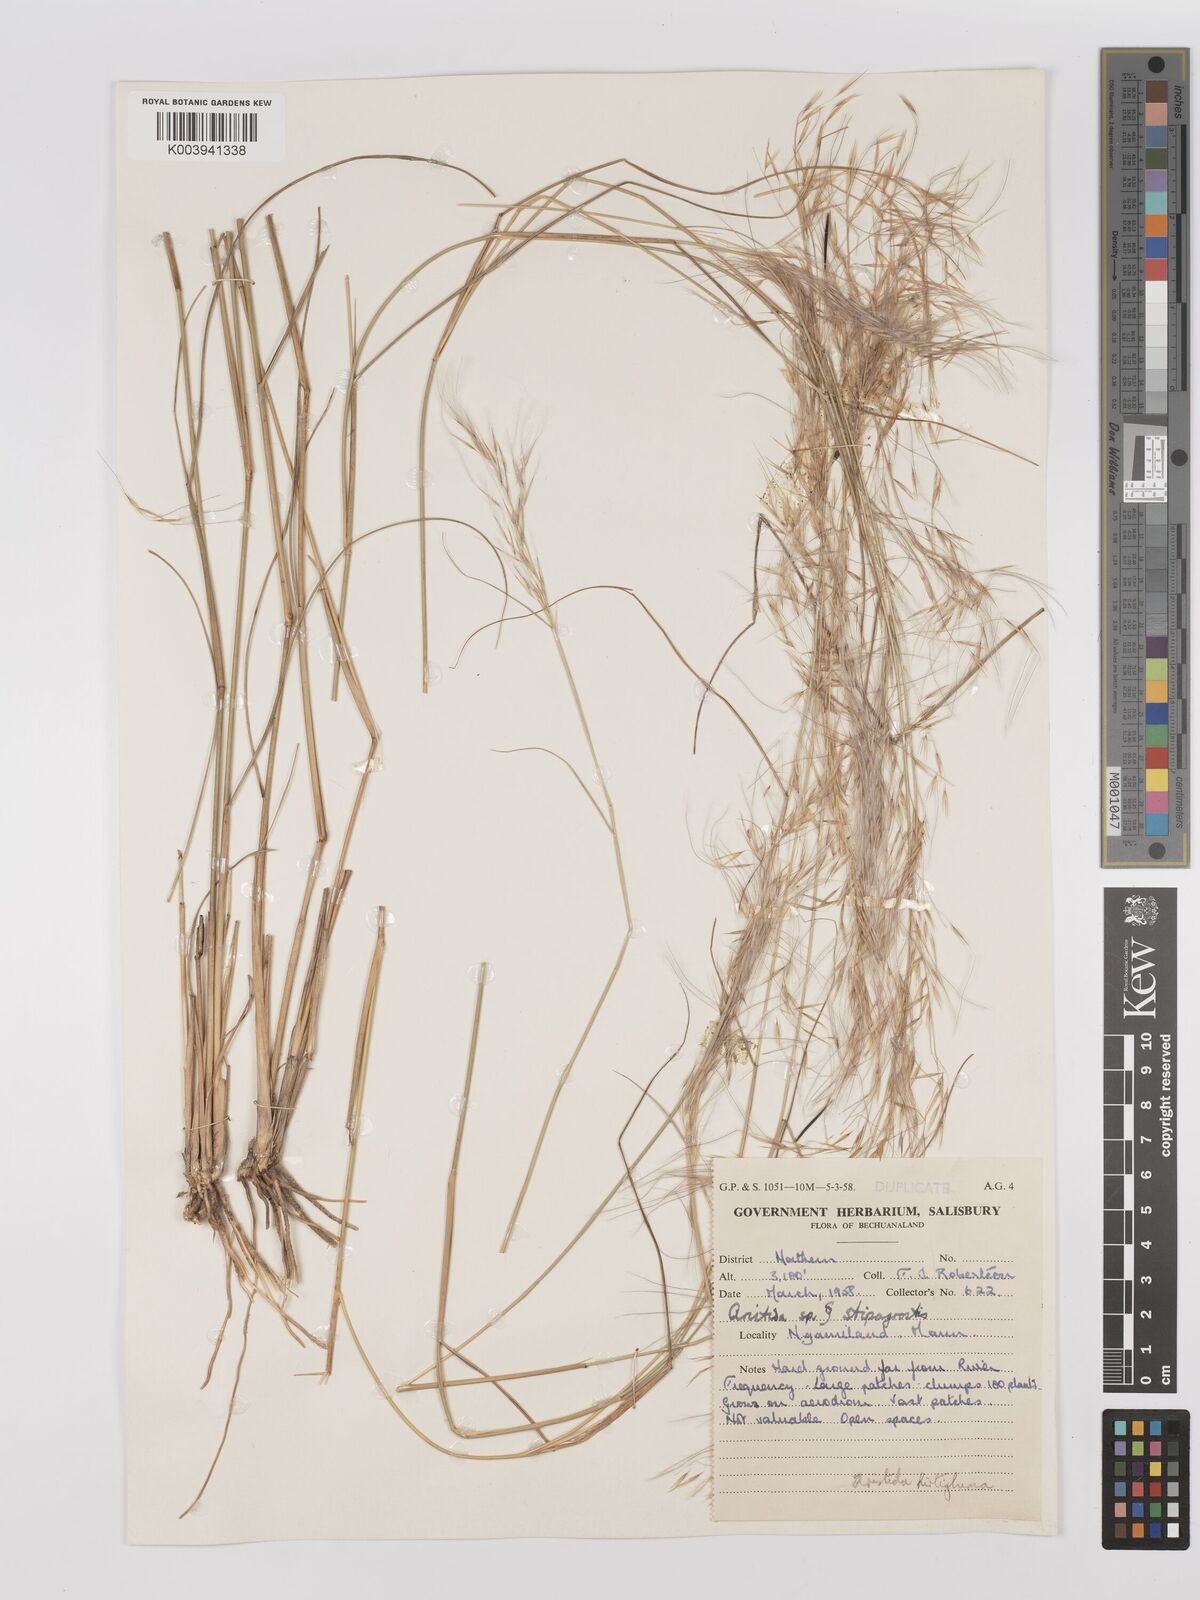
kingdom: Plantae
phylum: Tracheophyta
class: Liliopsida
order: Poales
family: Poaceae
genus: Stipagrostis
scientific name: Stipagrostis hirtigluma
